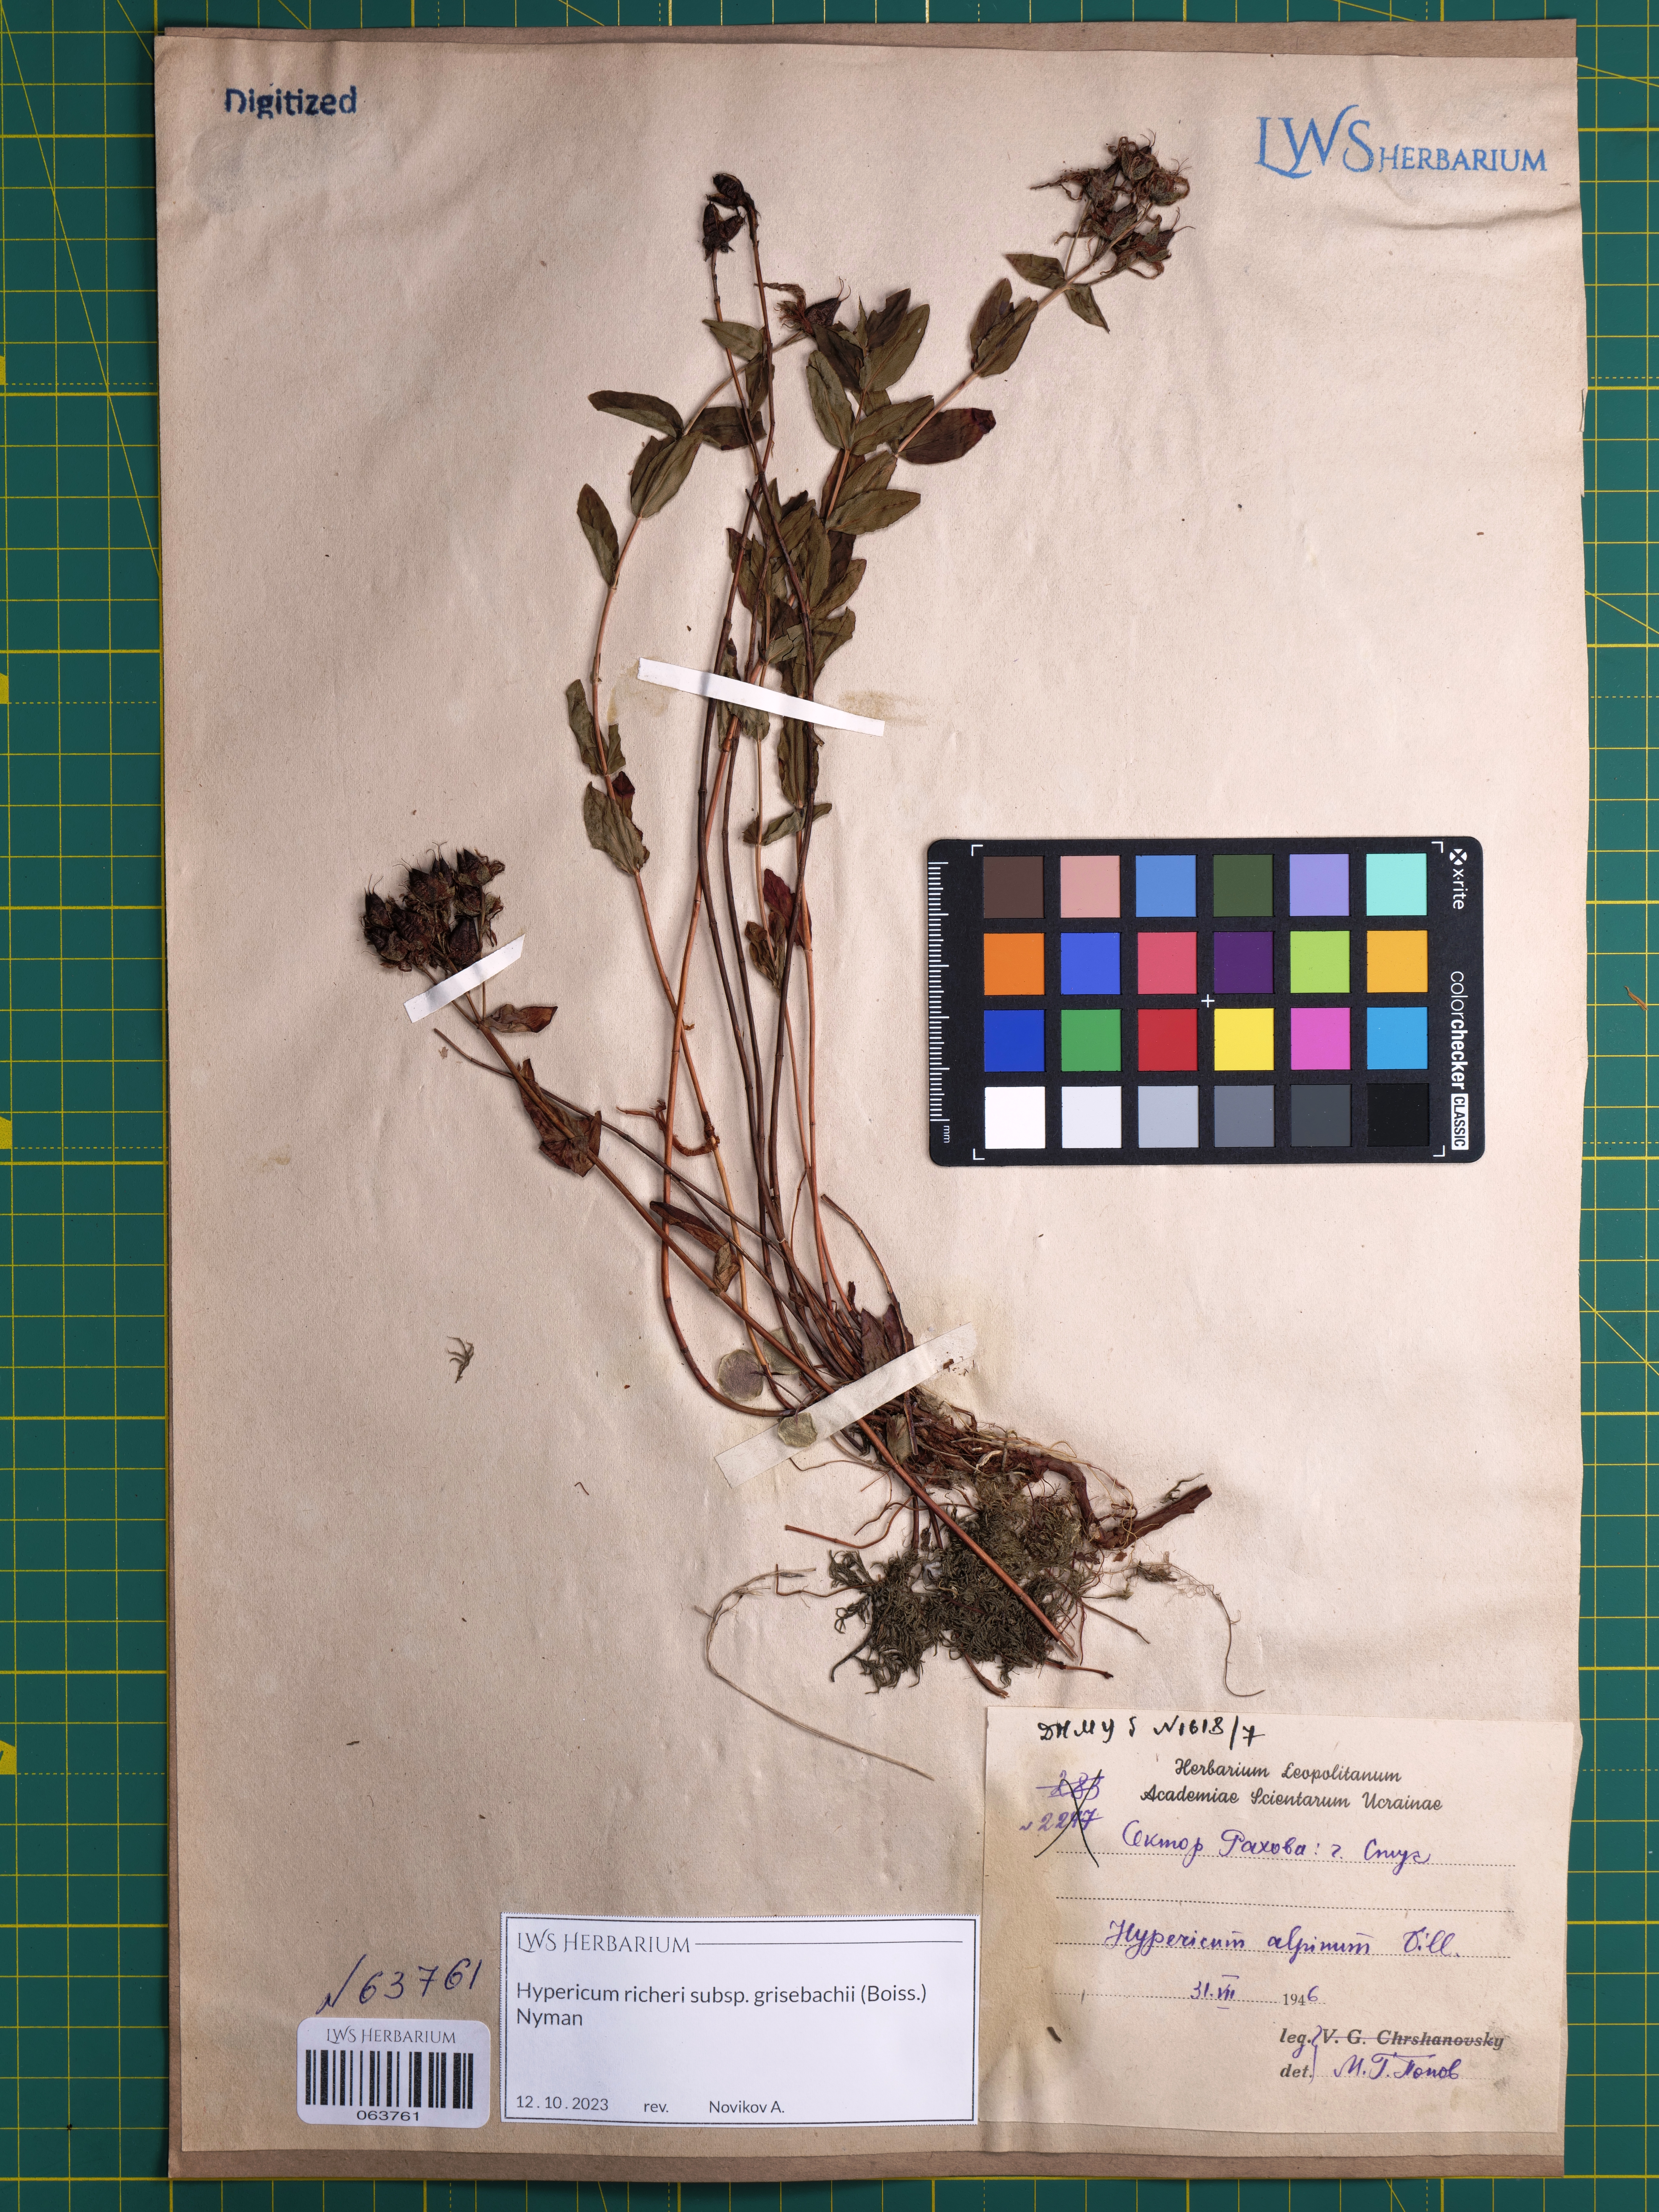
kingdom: Plantae
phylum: Tracheophyta
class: Magnoliopsida
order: Malpighiales
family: Hypericaceae
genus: Hypericum
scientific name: Hypericum richeri
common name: Alpine st john's-wort
